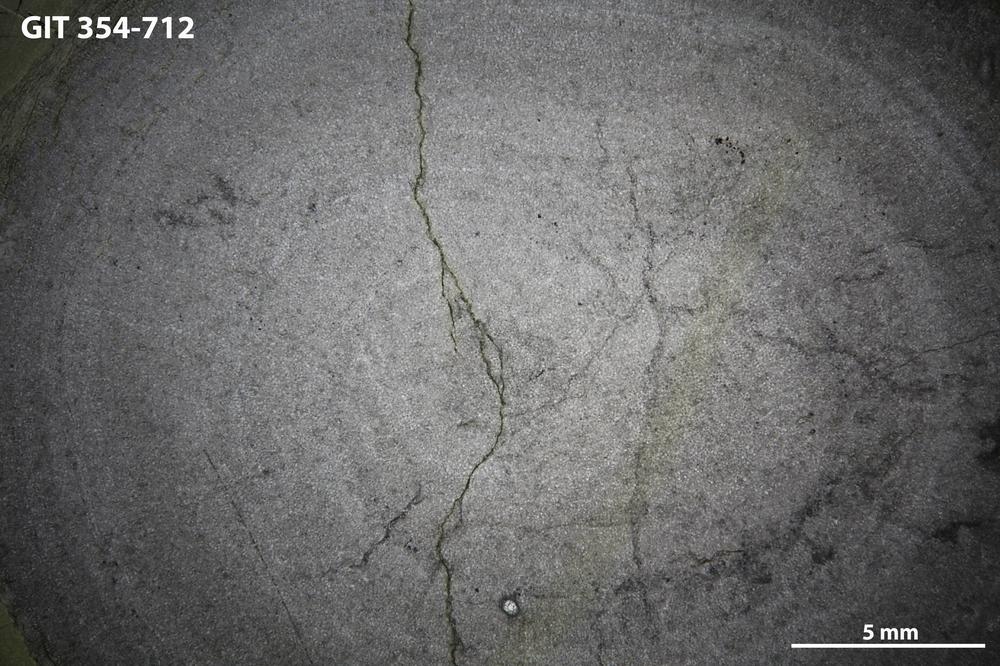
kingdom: Animalia
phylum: Porifera
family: Actinostromatidae
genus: Plectostroma
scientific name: Plectostroma
